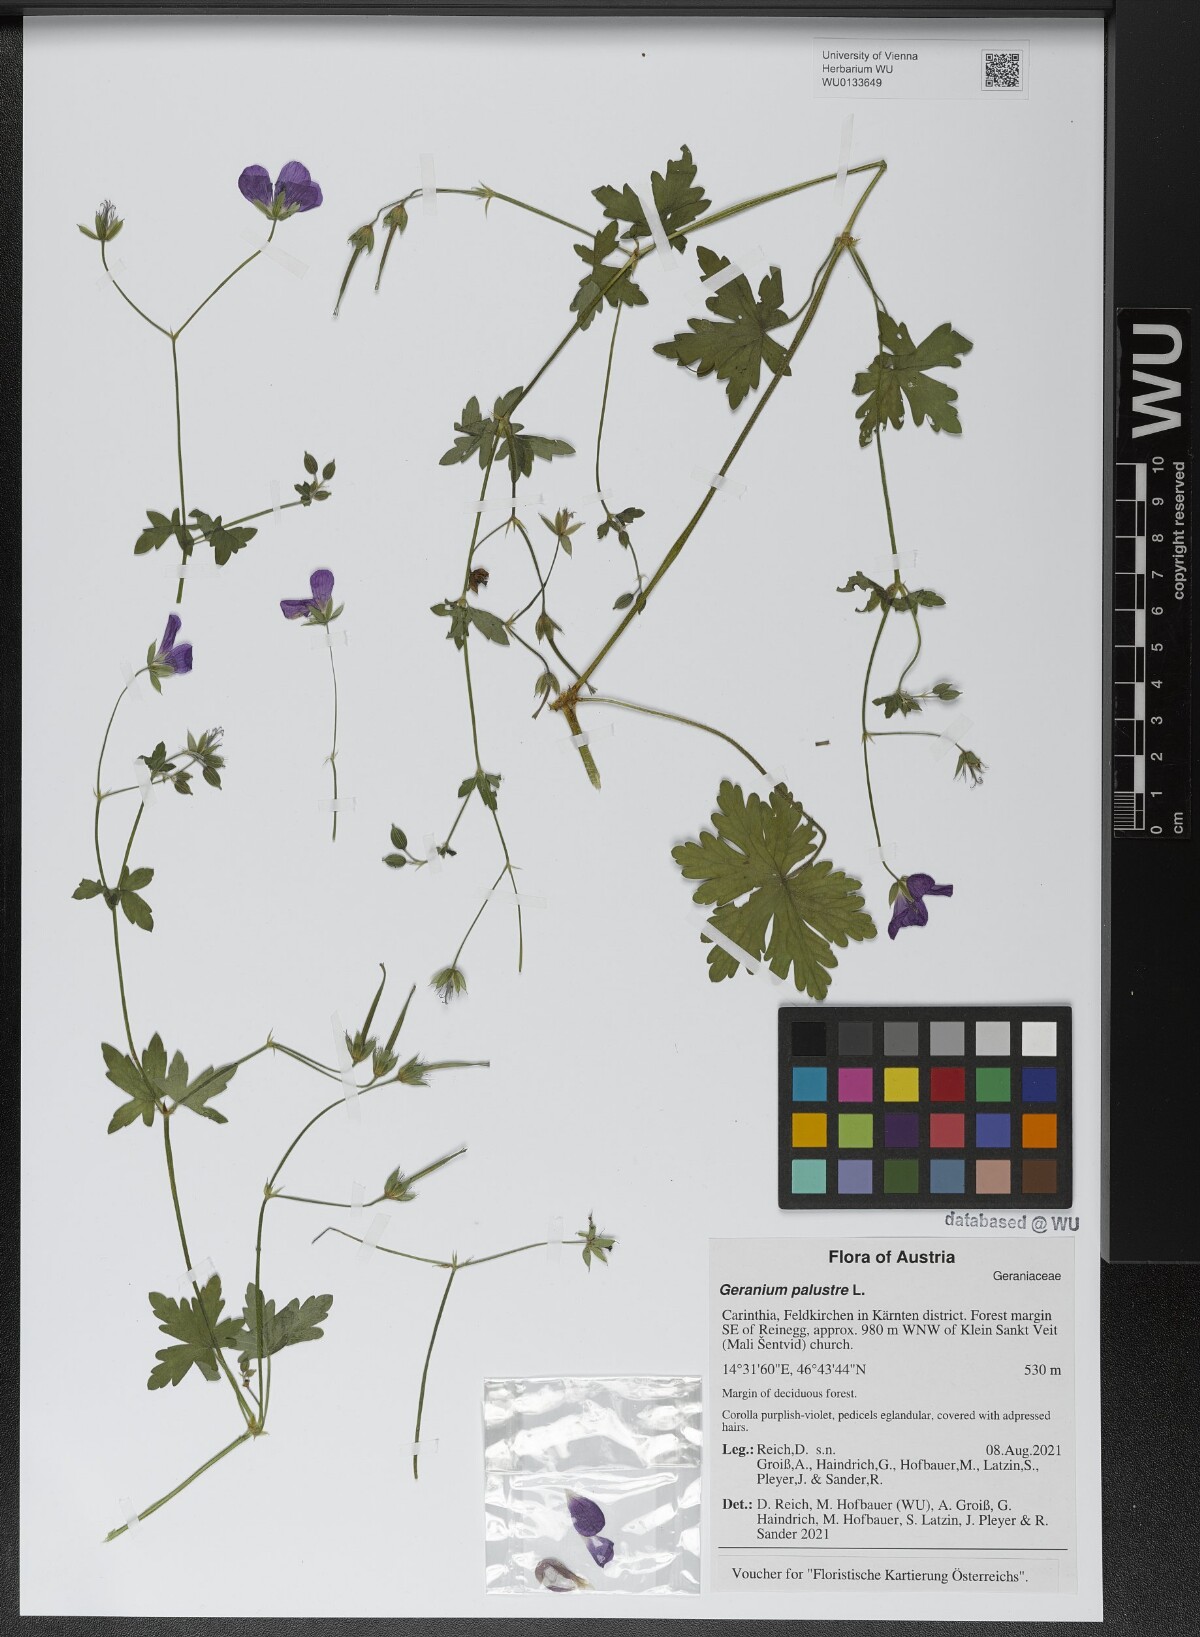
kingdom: Plantae
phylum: Tracheophyta
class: Magnoliopsida
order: Geraniales
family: Geraniaceae
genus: Geranium
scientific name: Geranium palustre
